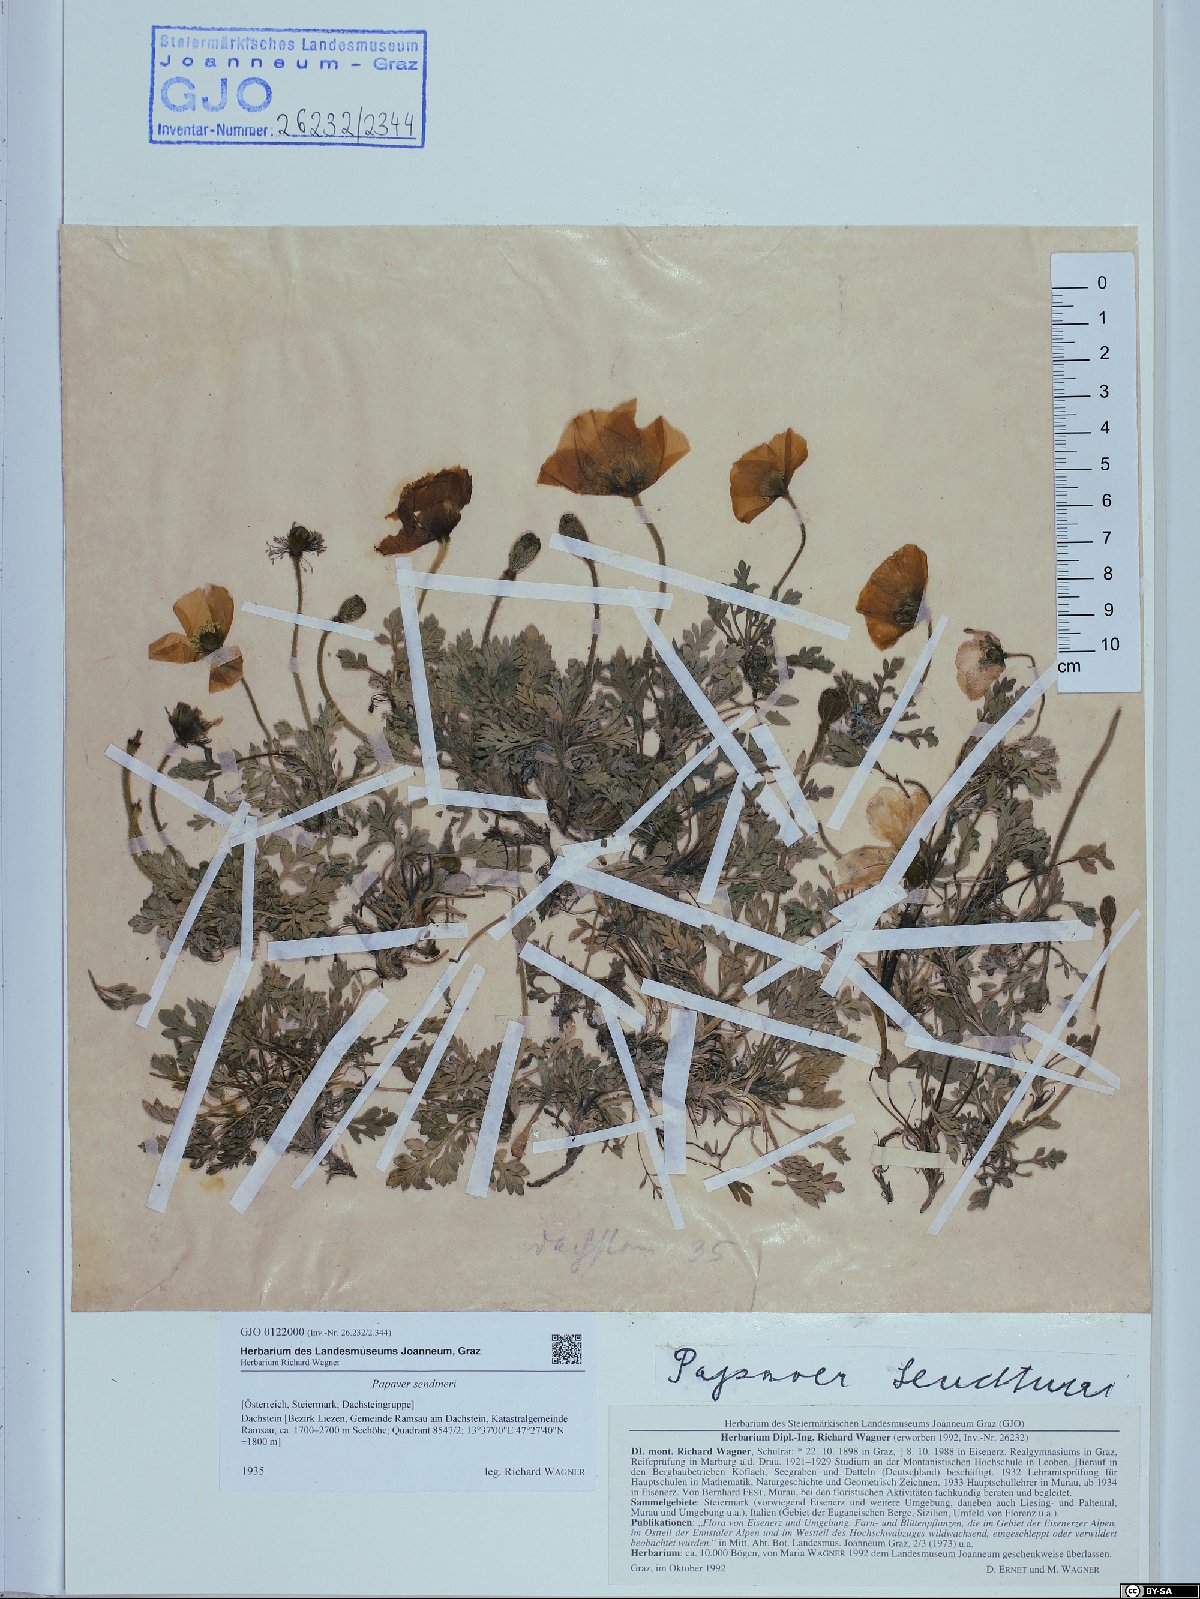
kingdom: Plantae
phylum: Tracheophyta
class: Magnoliopsida
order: Ranunculales
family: Papaveraceae
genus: Papaver
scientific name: Papaver alpinum
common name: Austrian poppy
